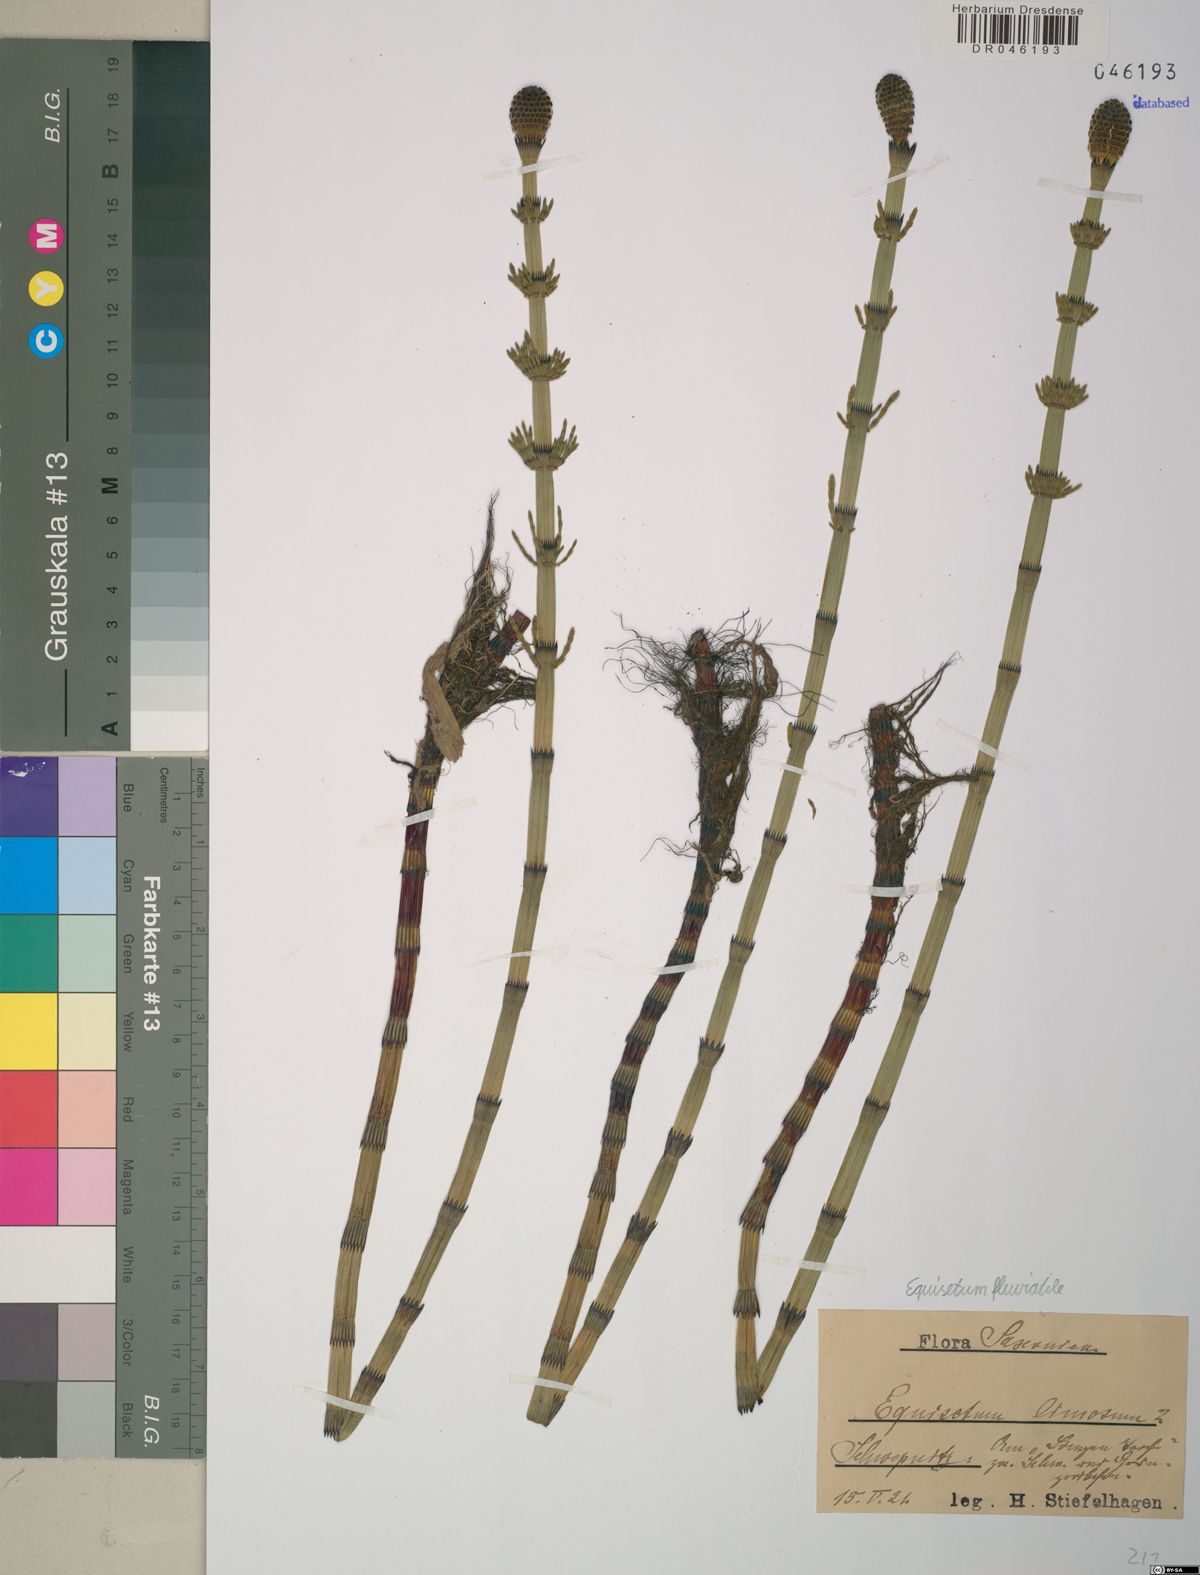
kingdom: Plantae
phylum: Tracheophyta
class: Polypodiopsida
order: Equisetales
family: Equisetaceae
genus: Equisetum
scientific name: Equisetum fluviatile
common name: Water horsetail
